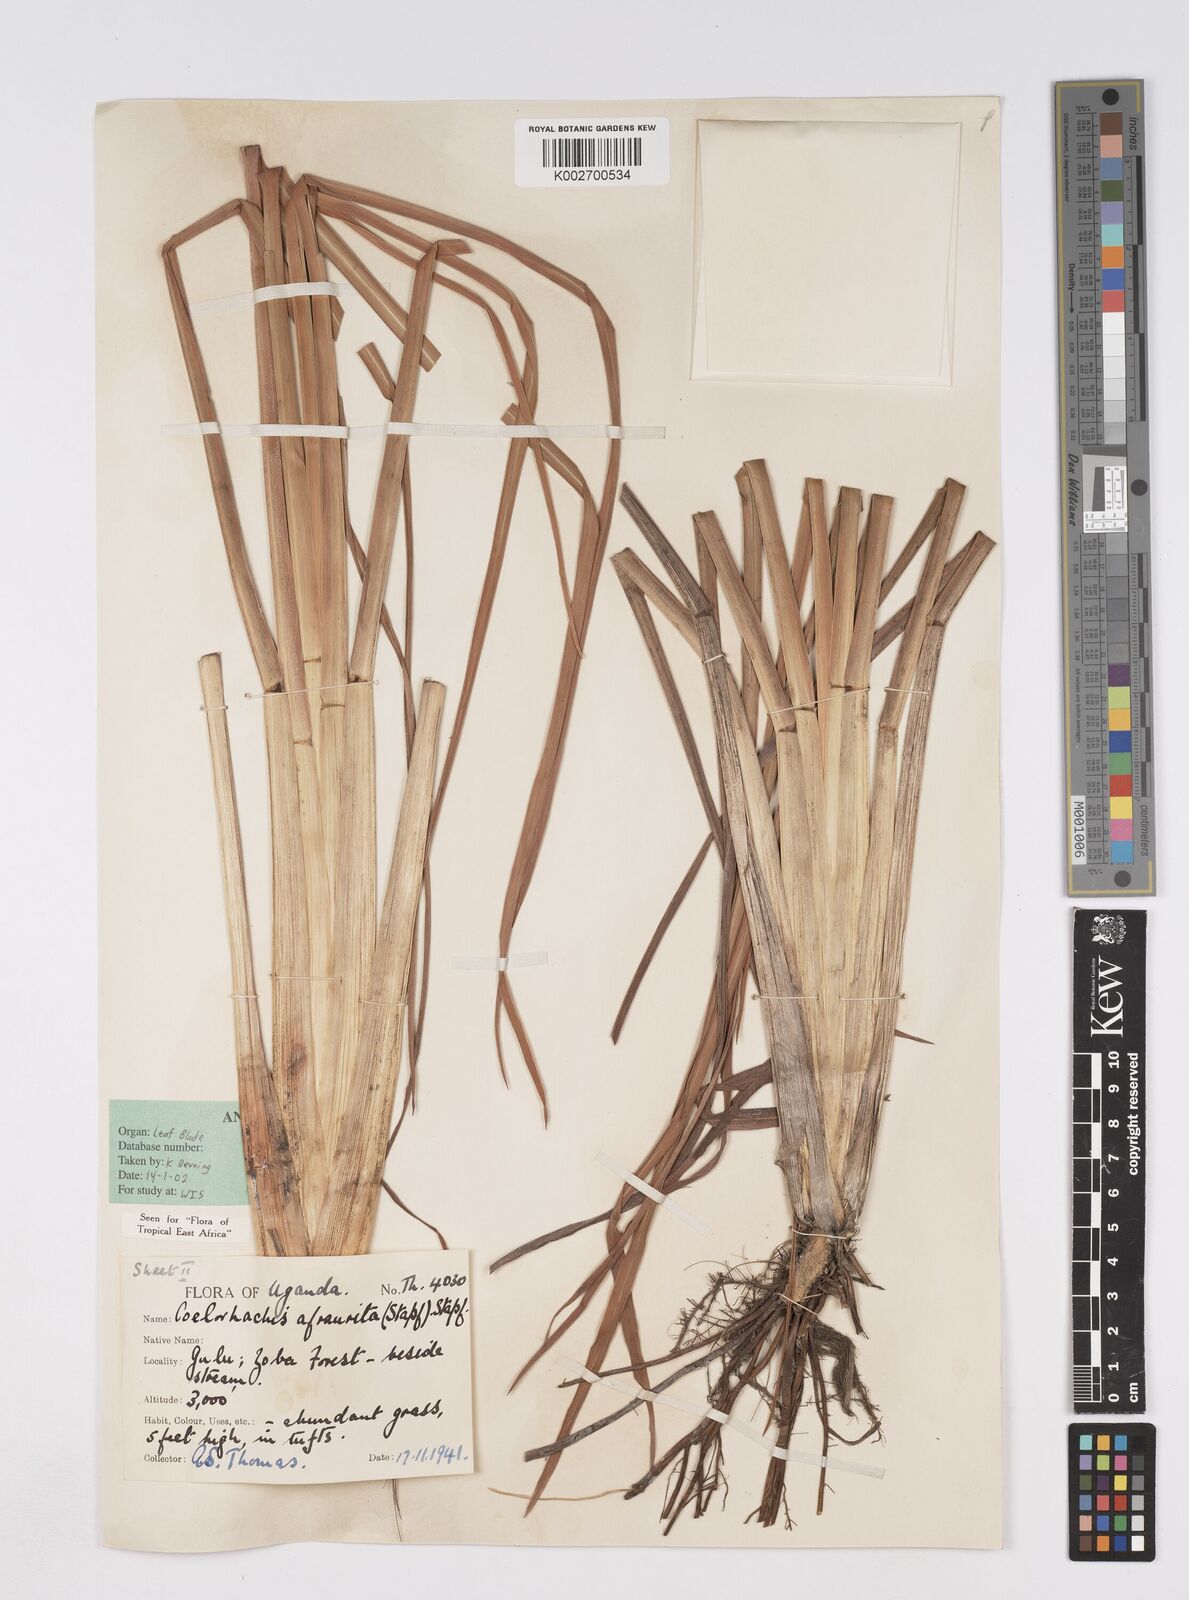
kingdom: Plantae
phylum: Tracheophyta
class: Liliopsida
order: Poales
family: Poaceae
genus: Rottboellia
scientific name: Rottboellia afraurita
